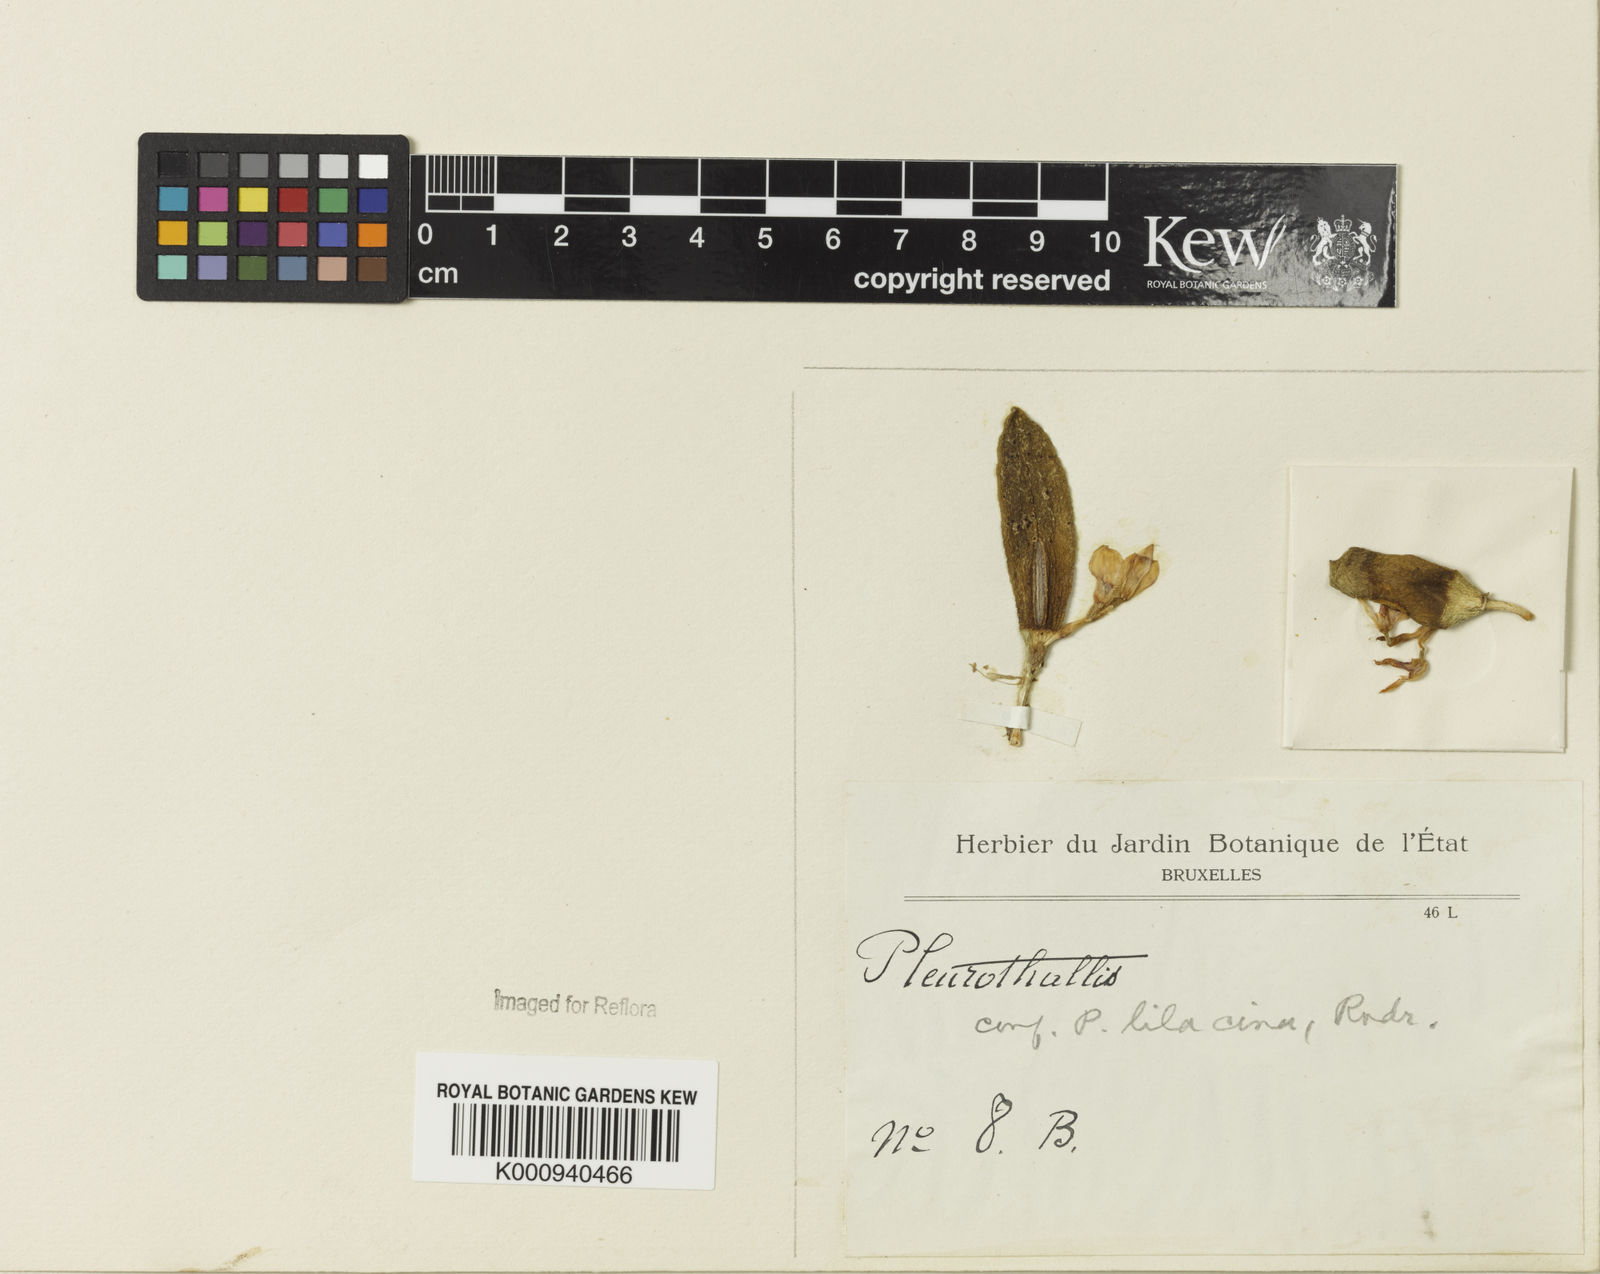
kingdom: Plantae
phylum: Tracheophyta
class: Liliopsida
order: Asparagales
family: Orchidaceae
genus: Acianthera
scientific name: Acianthera recurva
